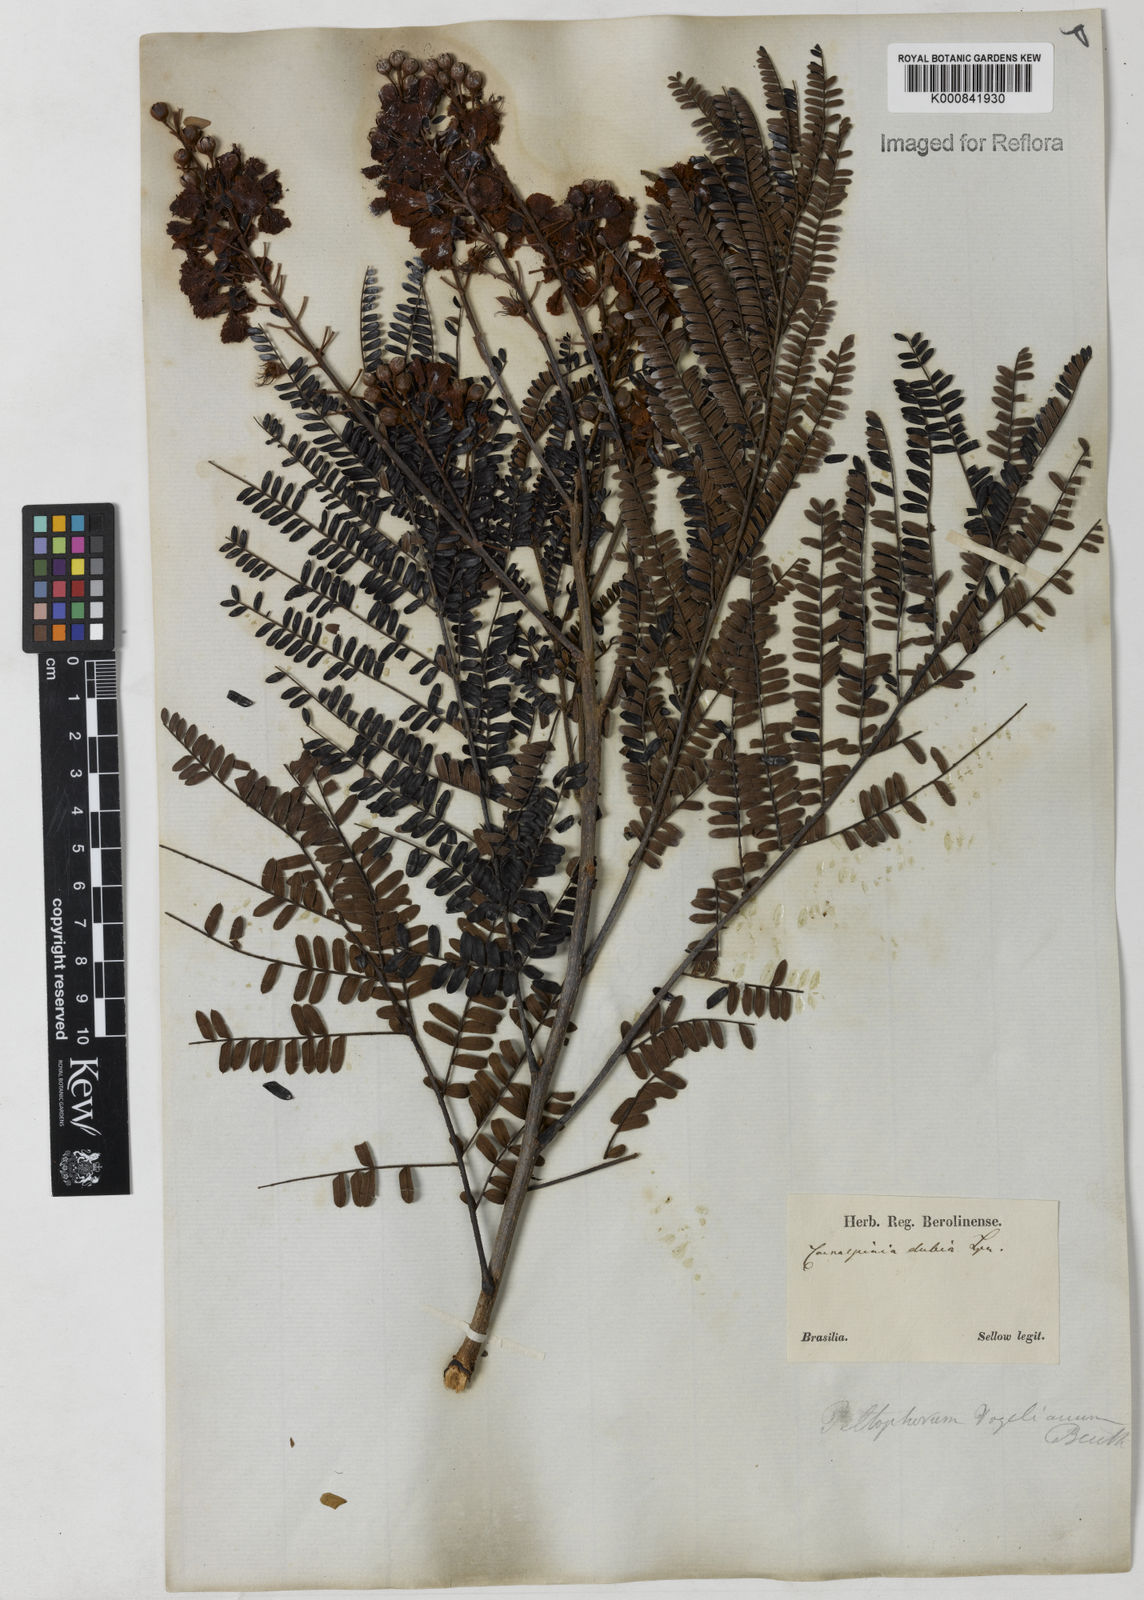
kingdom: Plantae
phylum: Tracheophyta
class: Magnoliopsida
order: Fabales
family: Fabaceae
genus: Peltophorum
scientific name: Peltophorum dubium
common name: Horsebush
